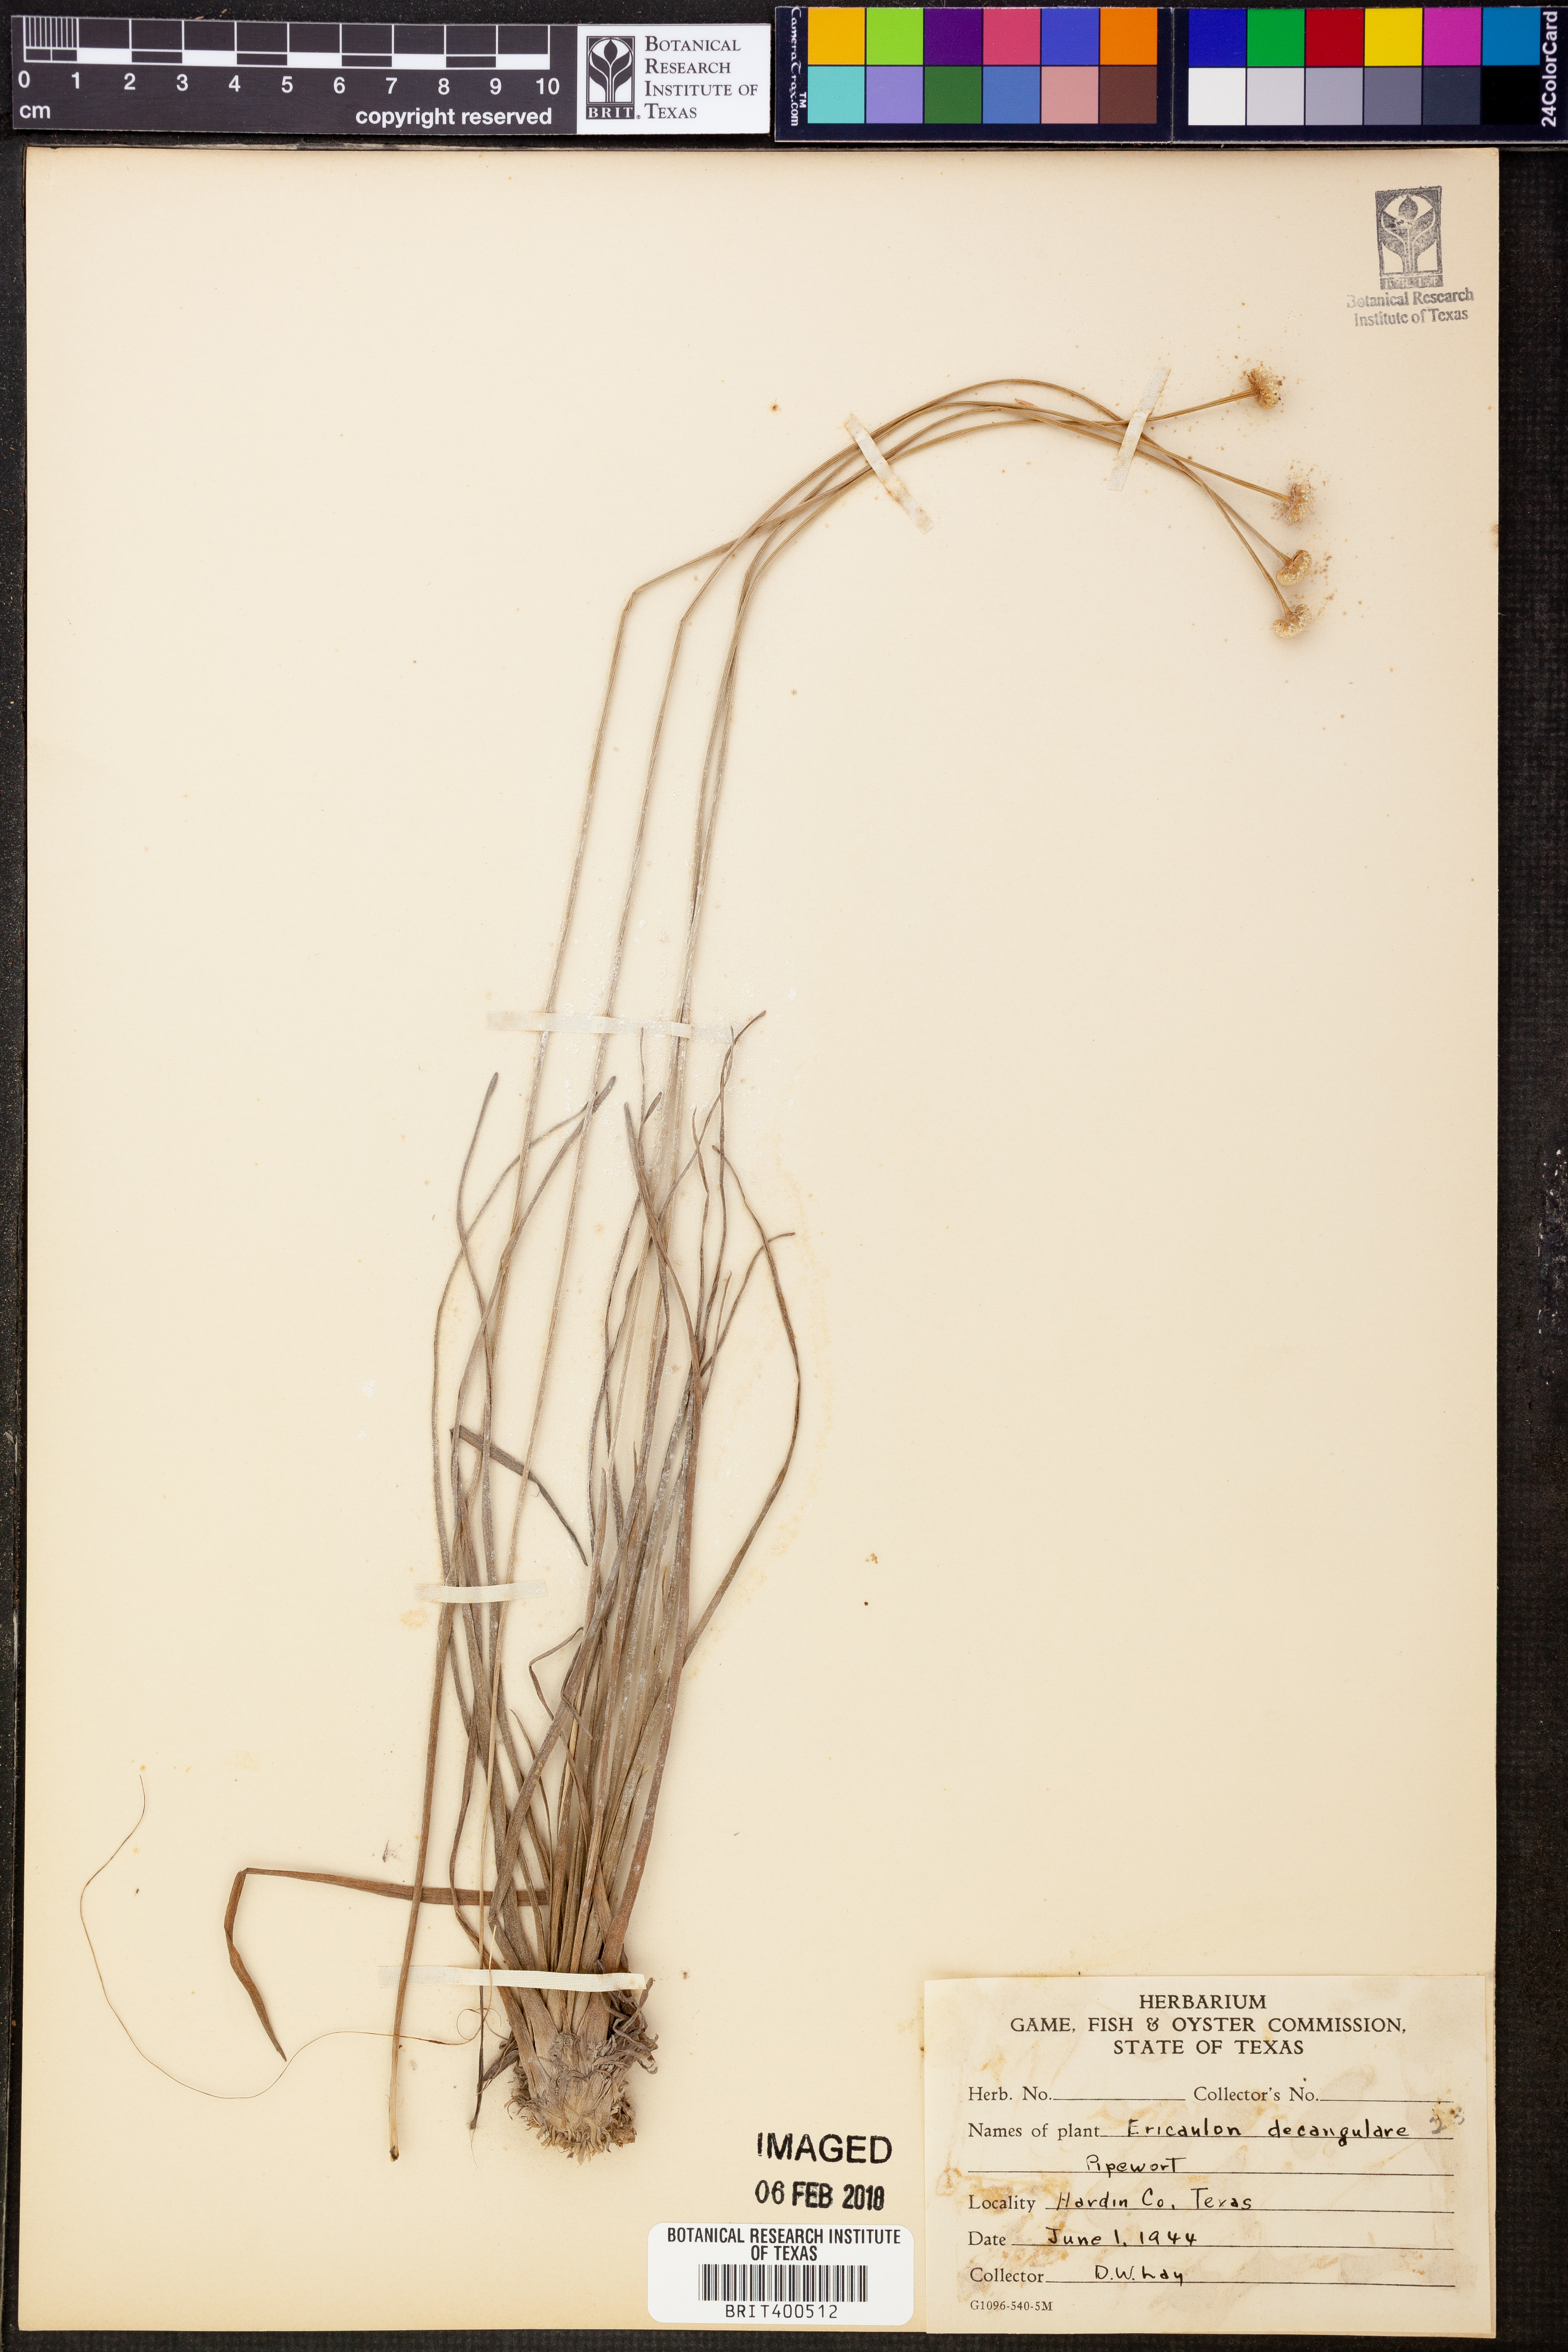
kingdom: Plantae
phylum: Tracheophyta
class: Liliopsida
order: Poales
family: Eriocaulaceae
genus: Eriocaulon
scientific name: Eriocaulon decangulare
